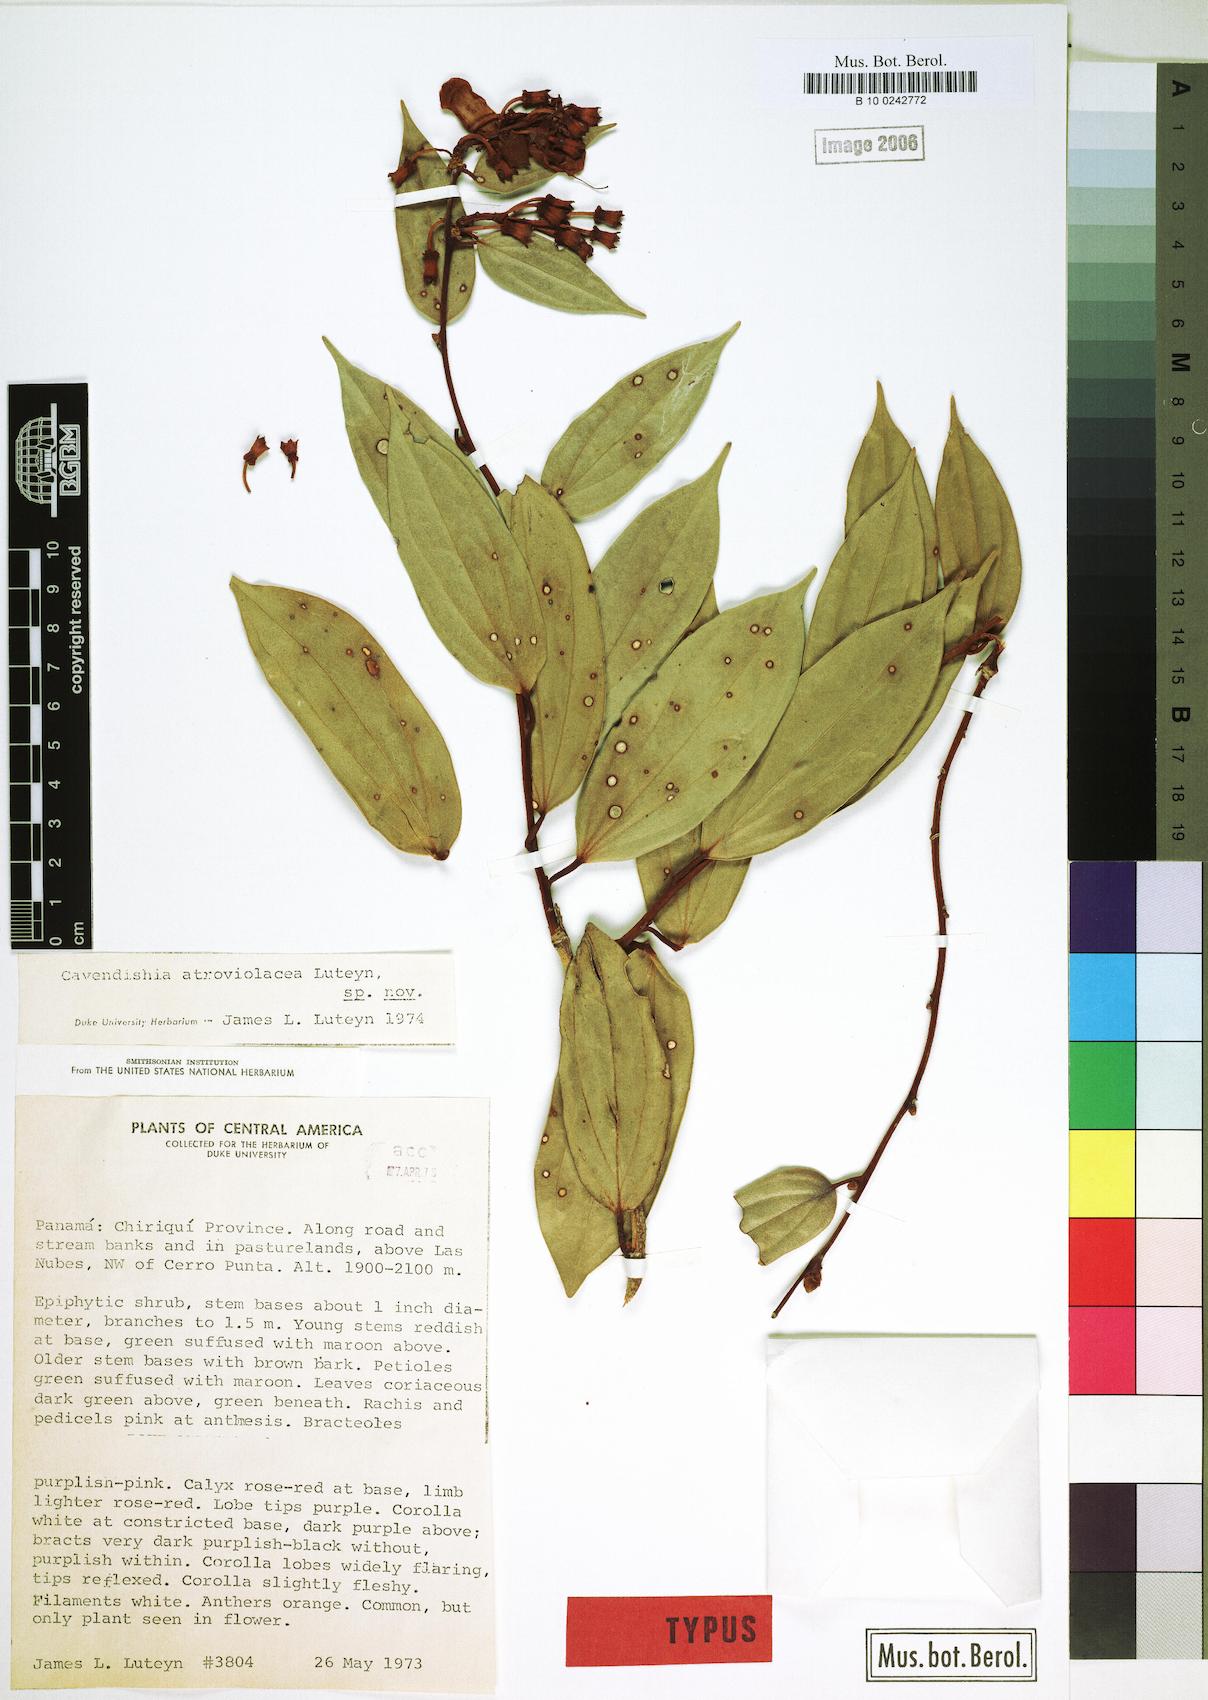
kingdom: Plantae
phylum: Tracheophyta
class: Magnoliopsida
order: Ericales
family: Ericaceae
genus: Cavendishia
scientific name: Cavendishia atroviolacea
